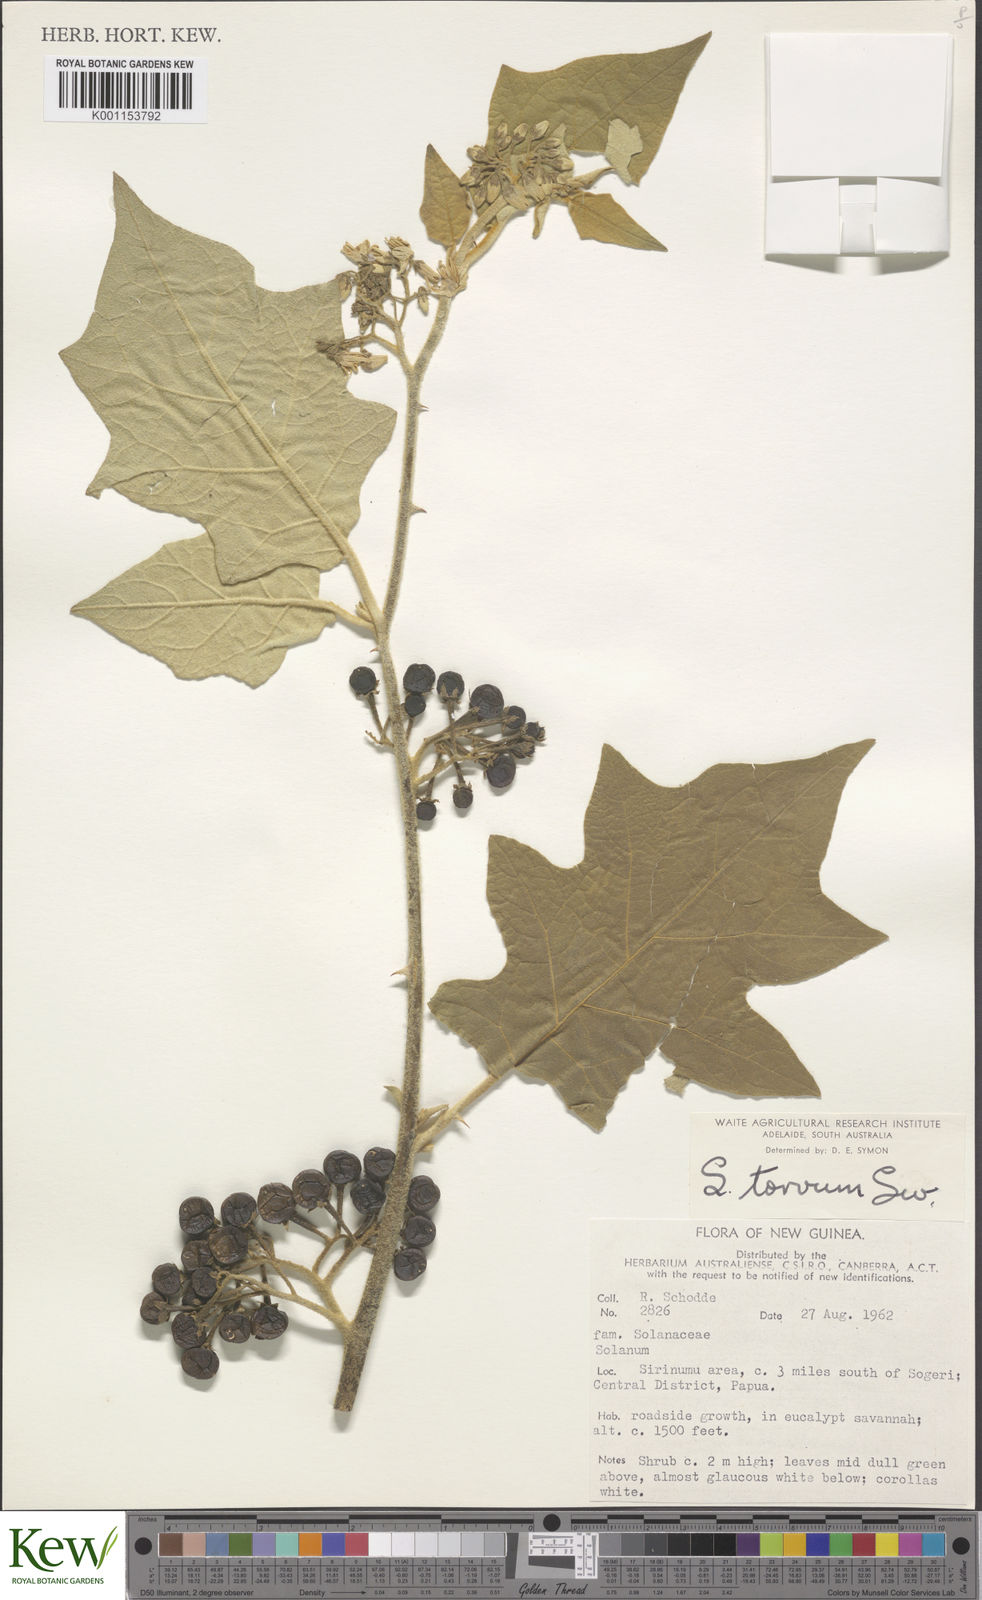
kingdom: Plantae
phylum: Tracheophyta
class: Magnoliopsida
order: Solanales
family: Solanaceae
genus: Solanum
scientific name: Solanum torvum
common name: Turkey berry
